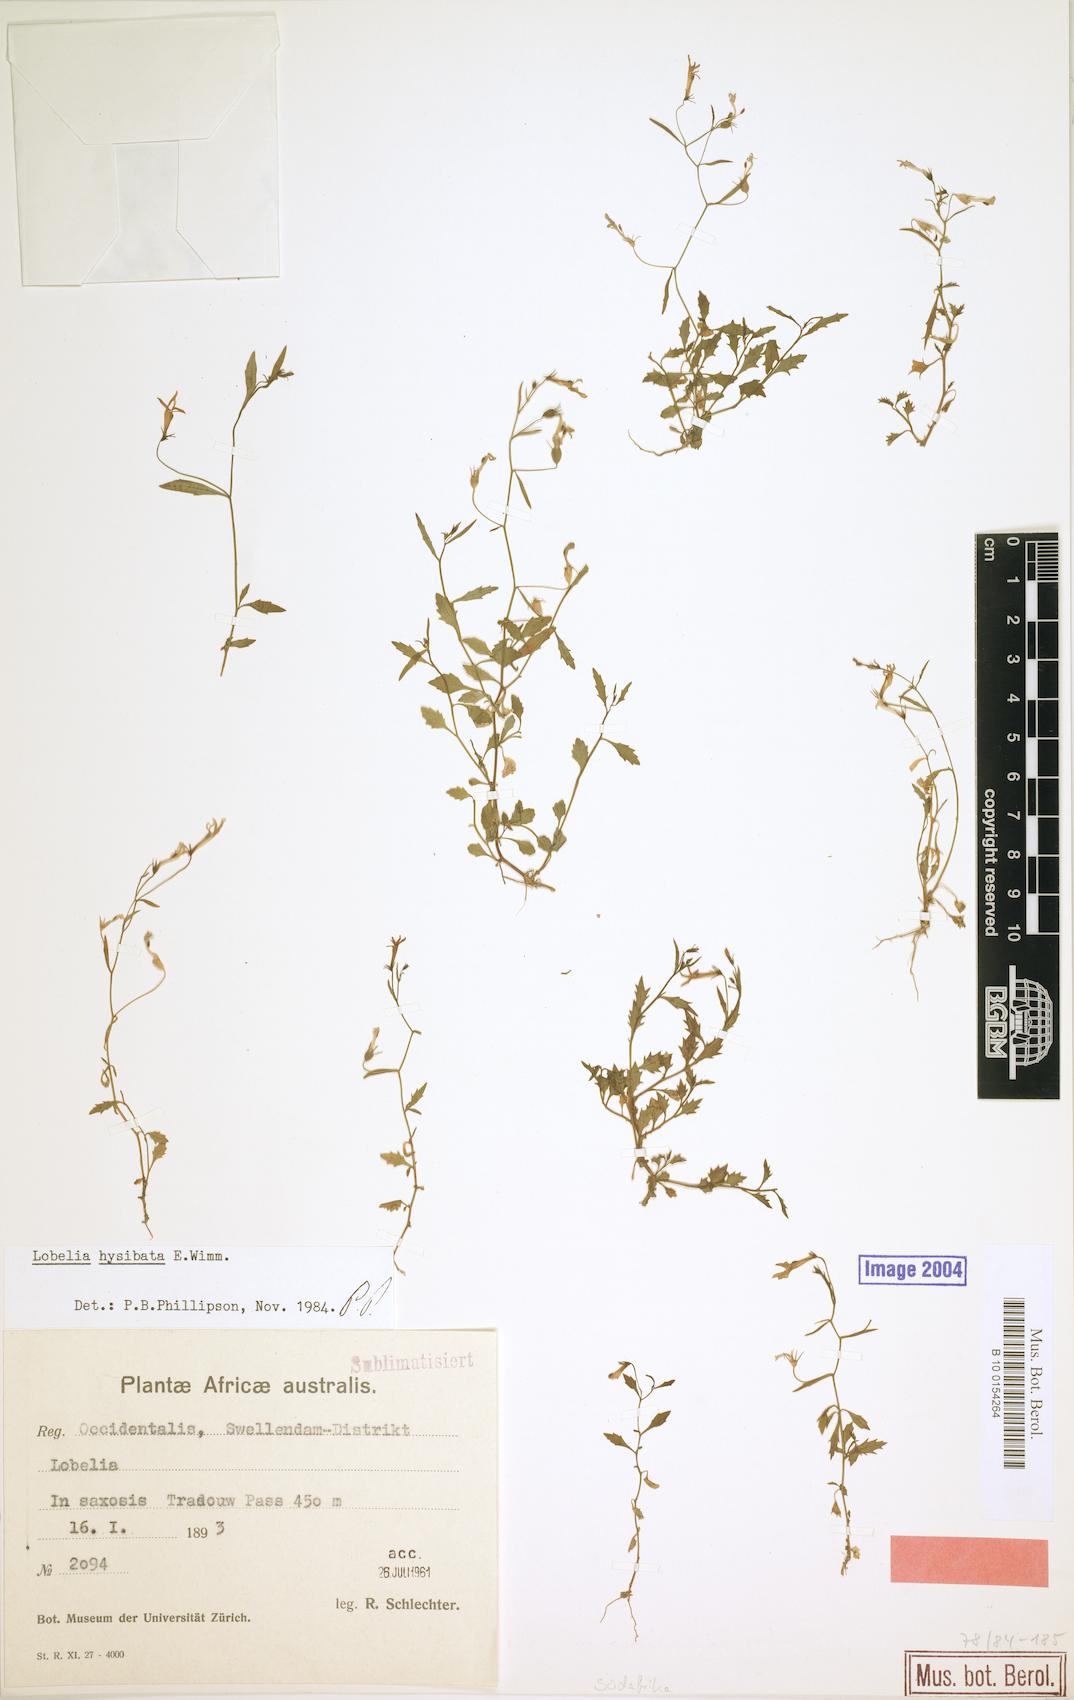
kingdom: Plantae
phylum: Tracheophyta
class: Magnoliopsida
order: Asterales
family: Campanulaceae
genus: Lobelia
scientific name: Lobelia hypsibata
